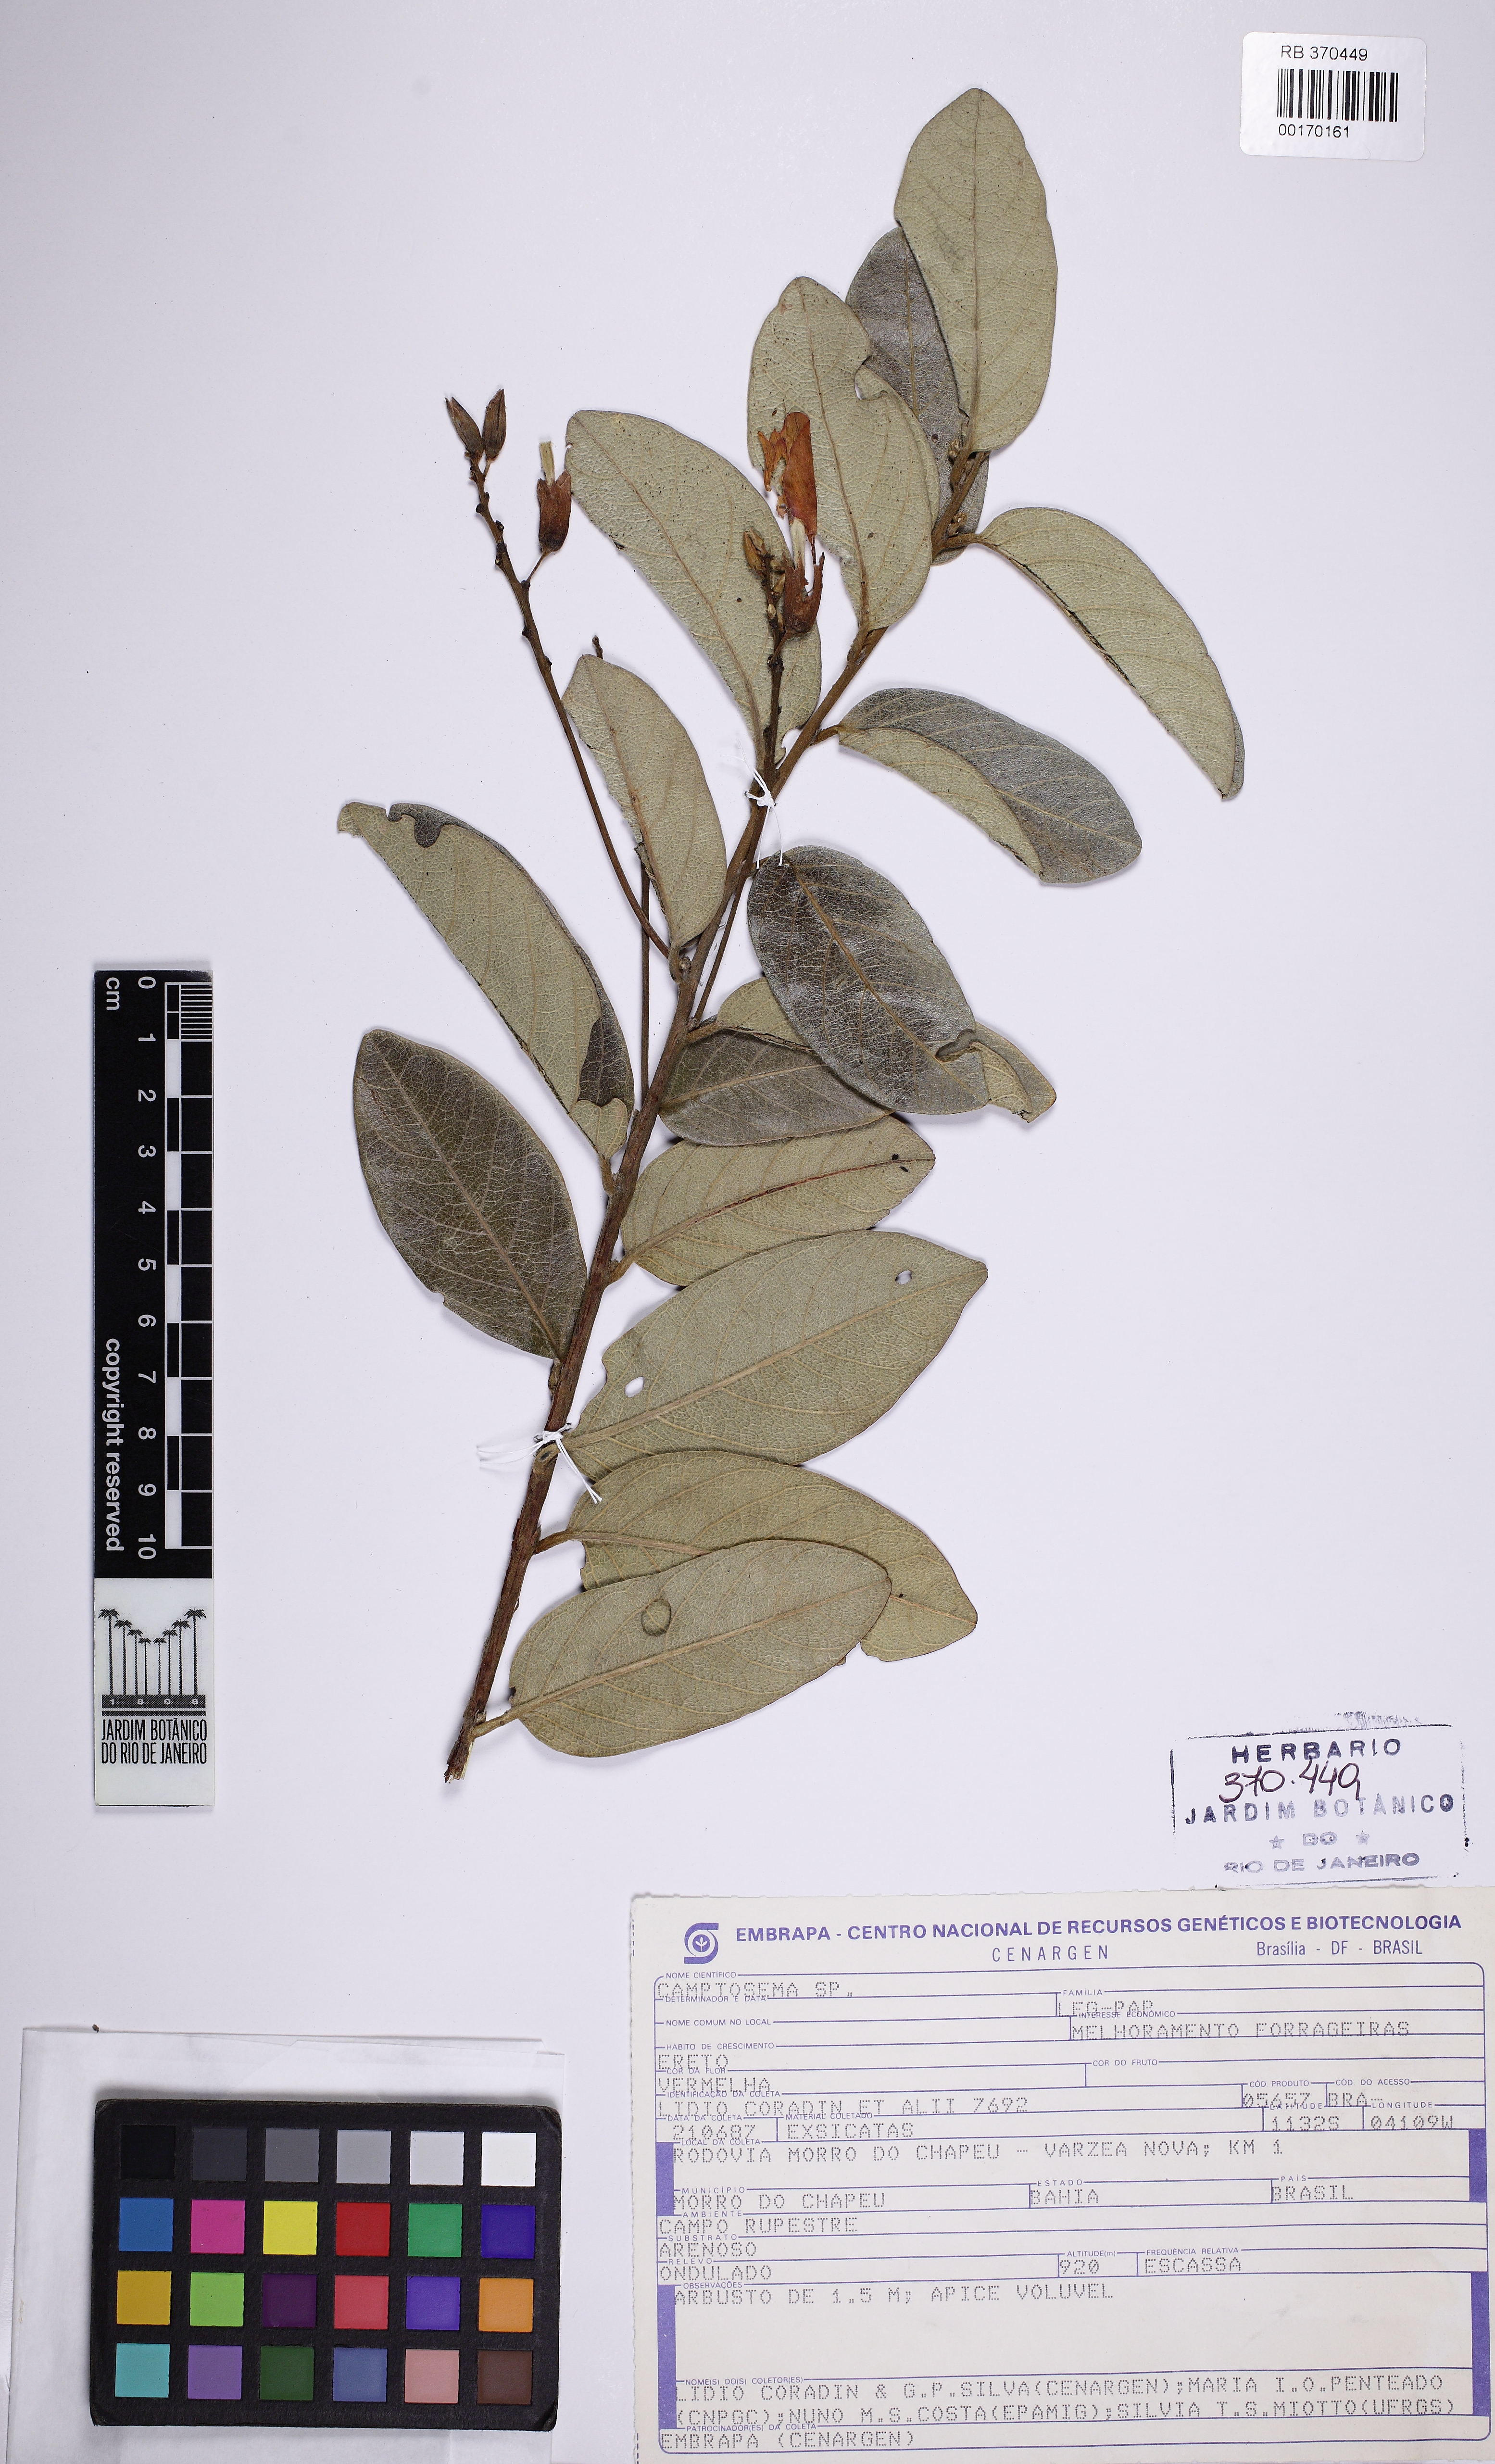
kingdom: Plantae
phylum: Tracheophyta
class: Magnoliopsida
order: Fabales
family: Fabaceae
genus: Camptosema
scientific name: Camptosema
